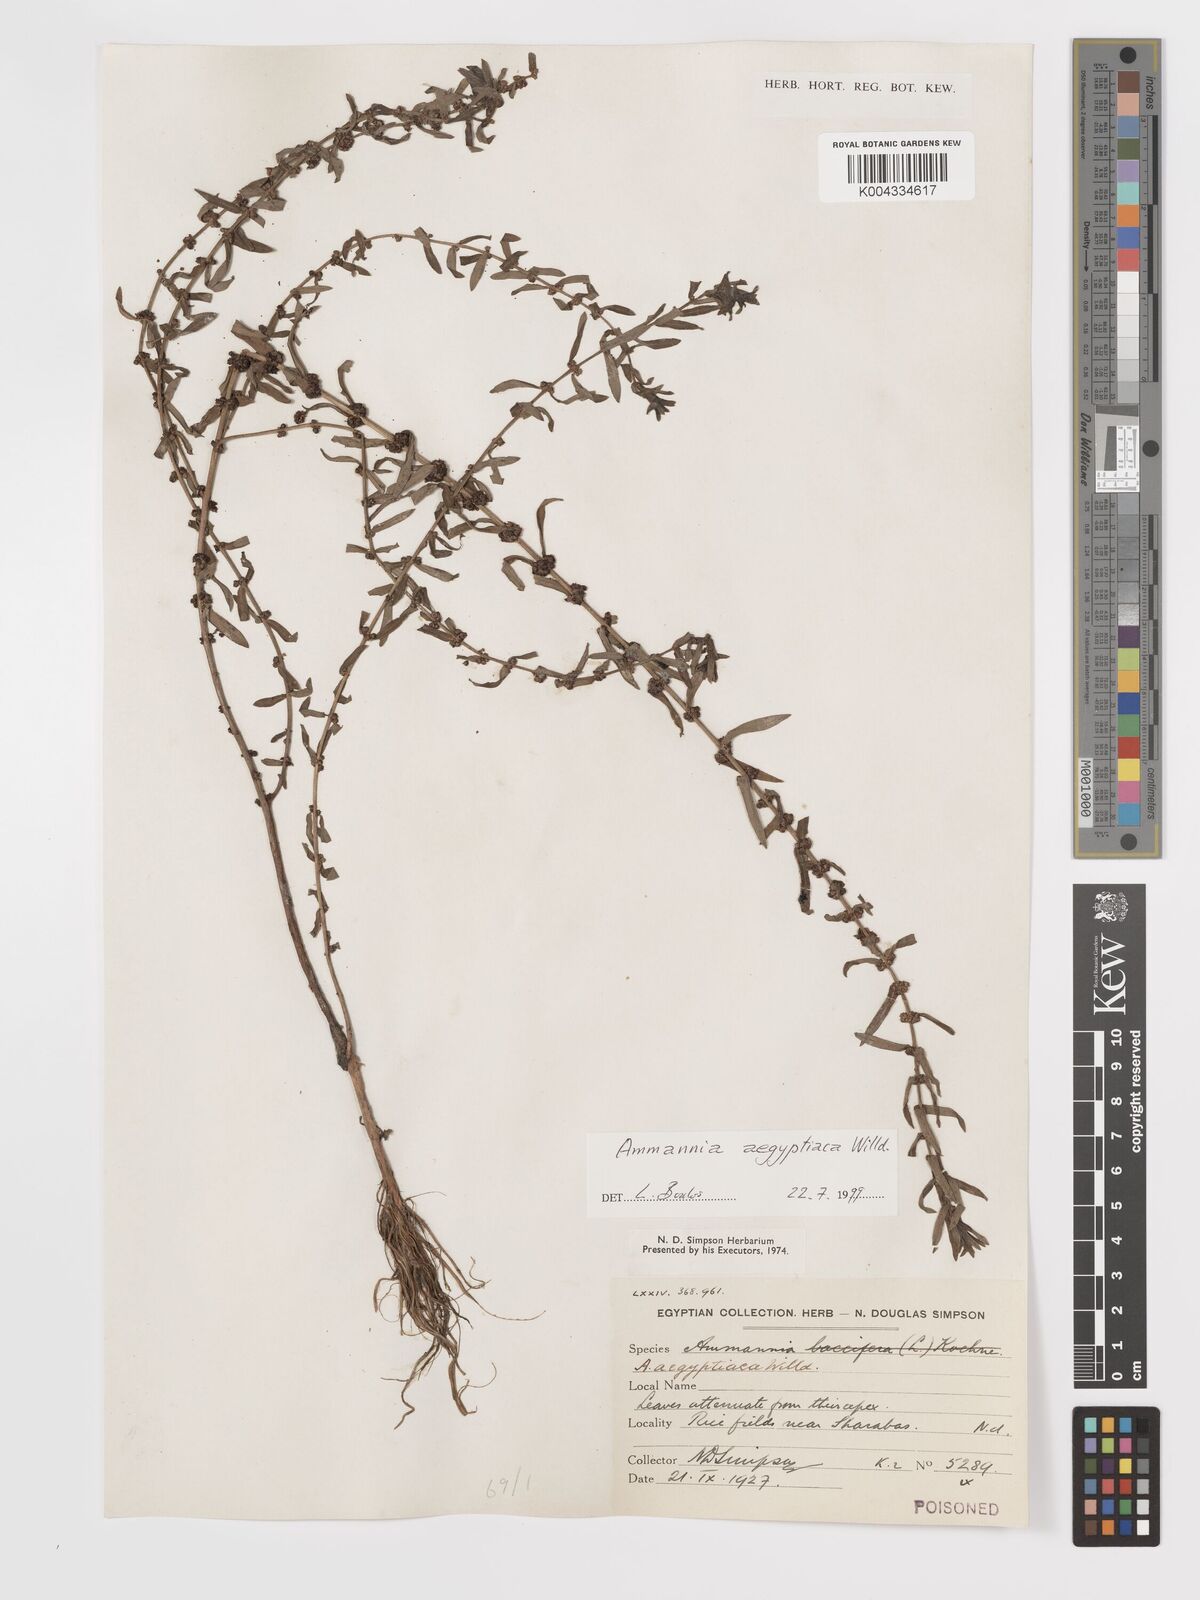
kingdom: Plantae
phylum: Tracheophyta
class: Magnoliopsida
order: Myrtales
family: Lythraceae
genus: Ammannia
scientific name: Ammannia
